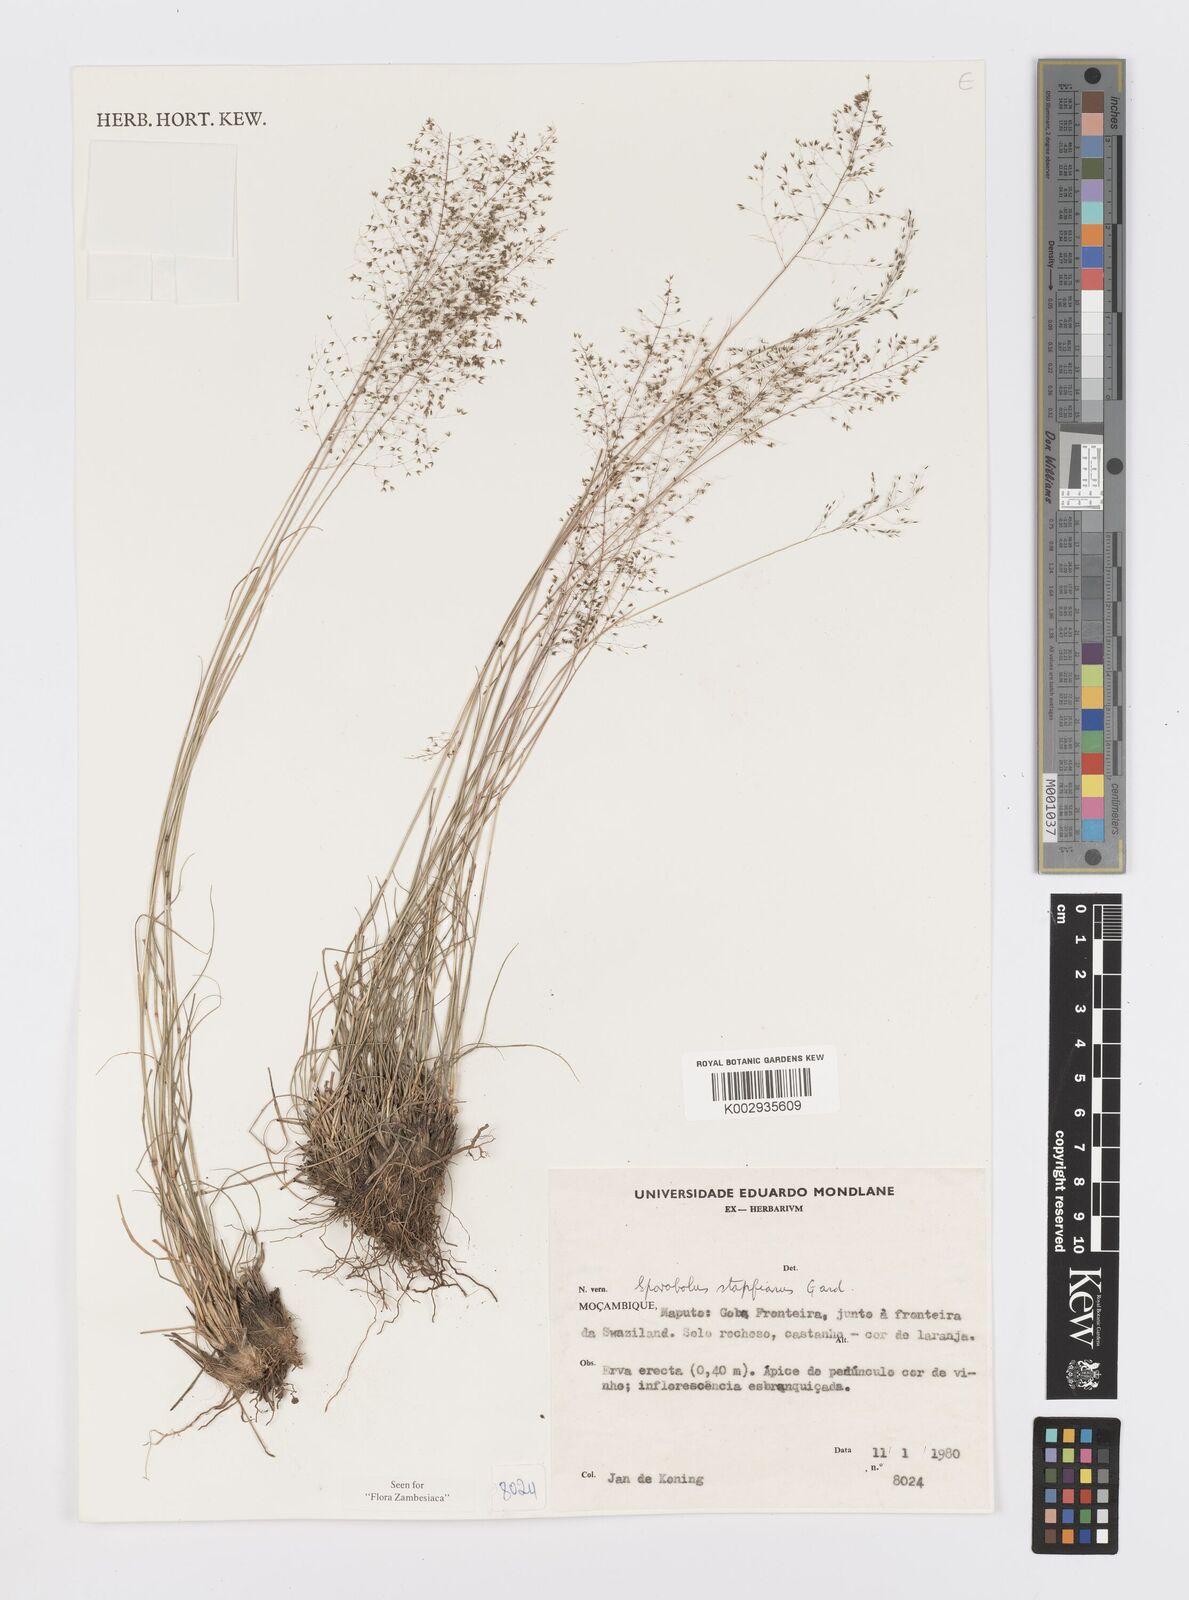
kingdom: Plantae
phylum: Tracheophyta
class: Liliopsida
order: Poales
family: Poaceae
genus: Sporobolus
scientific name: Sporobolus stapfianus
